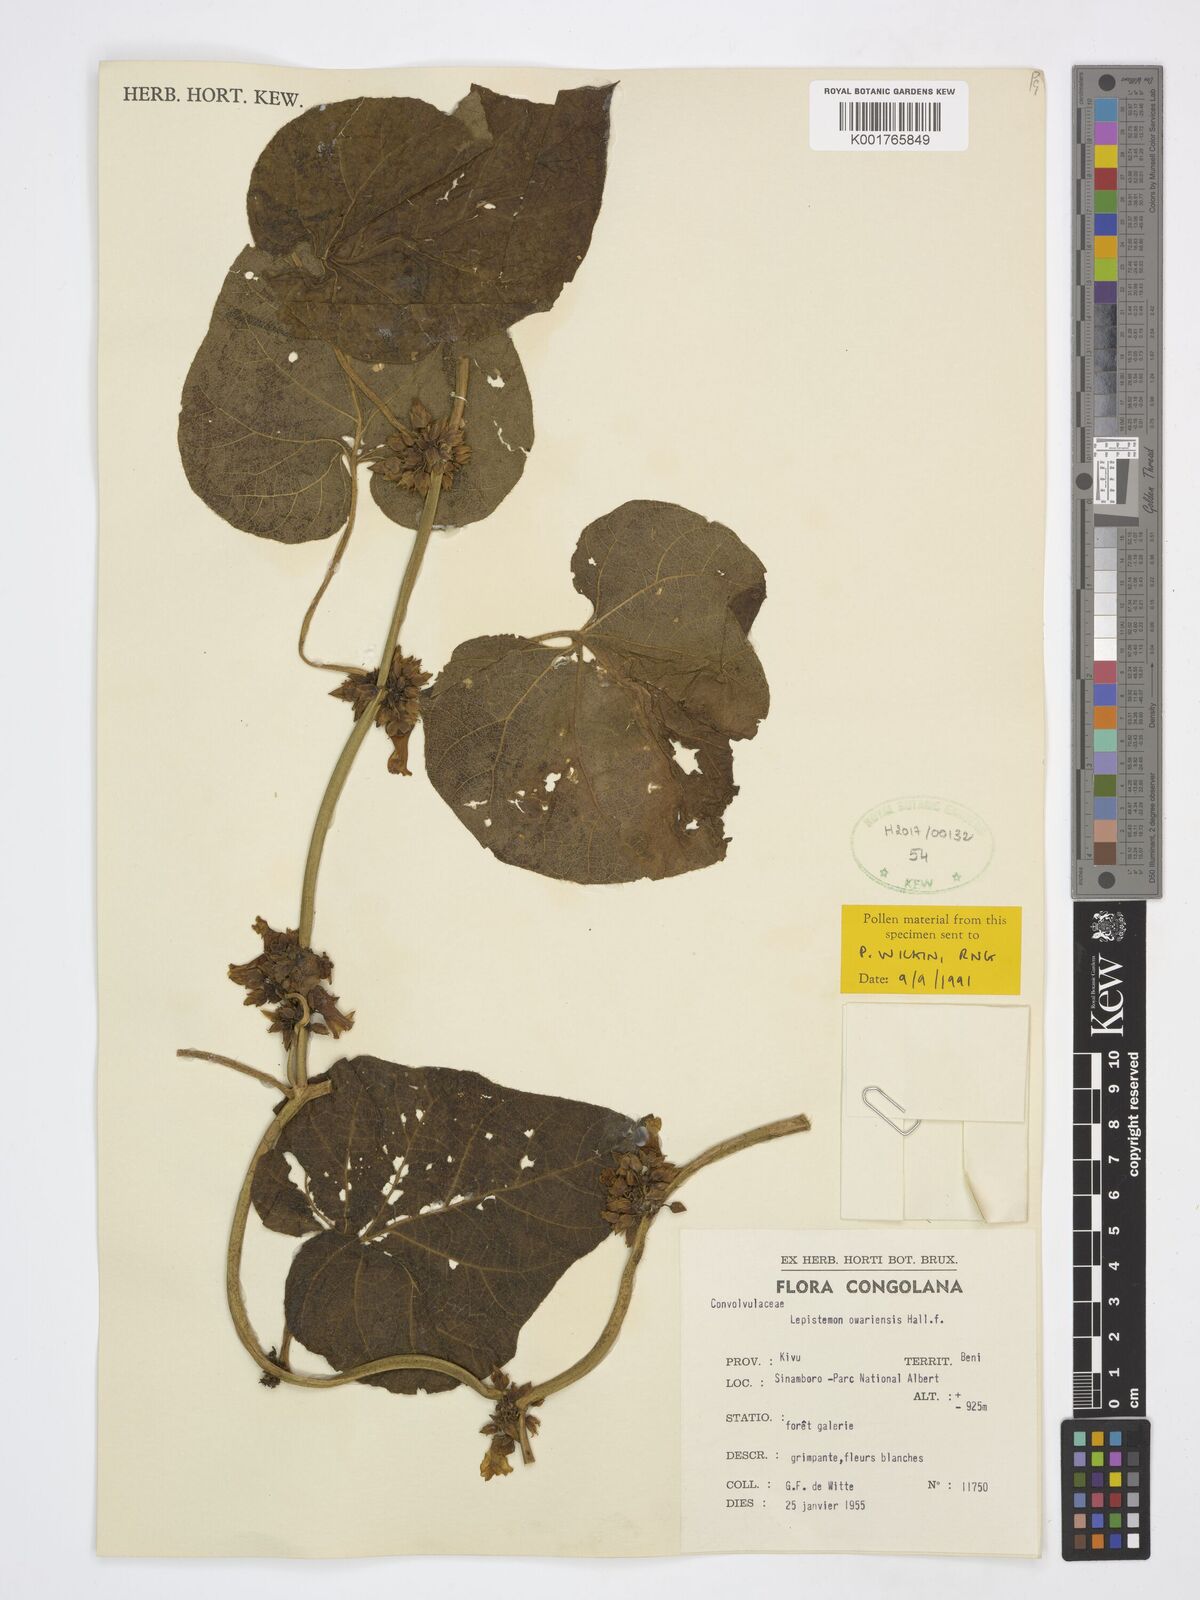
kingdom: Plantae
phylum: Tracheophyta
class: Magnoliopsida
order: Solanales
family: Convolvulaceae
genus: Lepistemon
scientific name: Lepistemon owariensis
